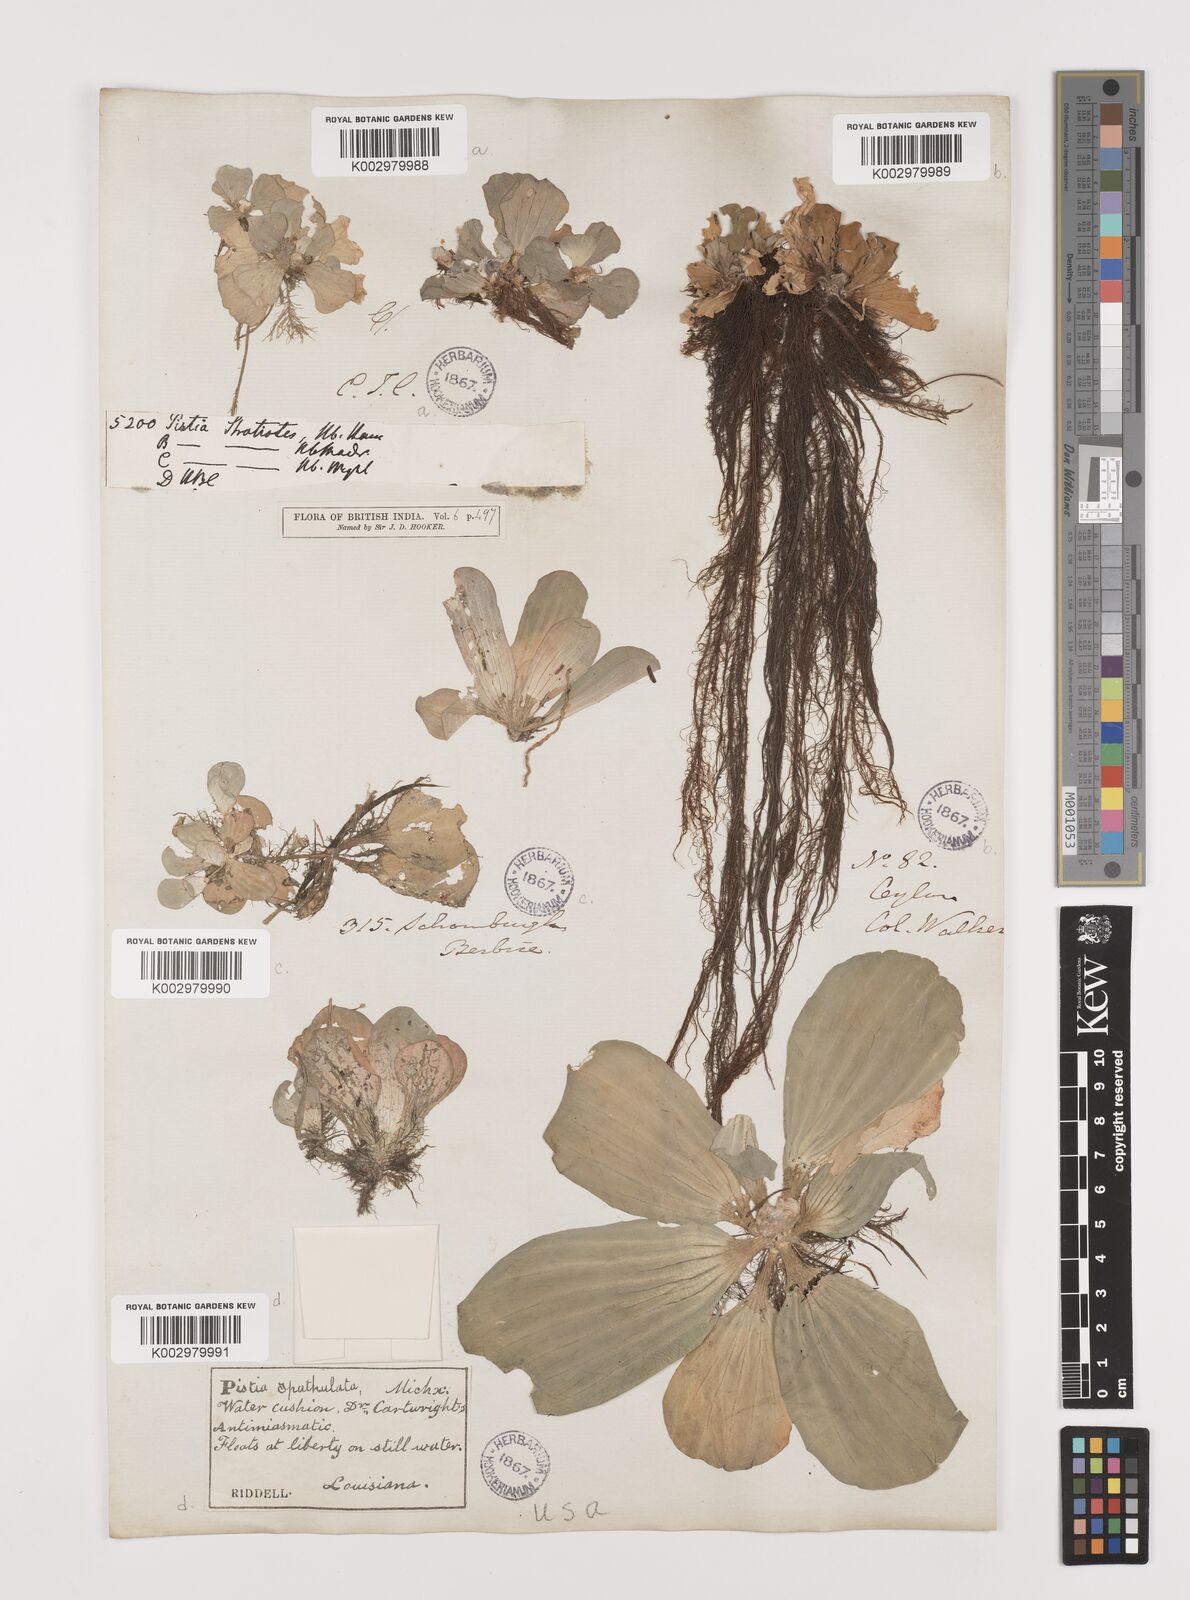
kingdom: Plantae
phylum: Tracheophyta
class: Liliopsida
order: Alismatales
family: Araceae
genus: Pistia
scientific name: Pistia stratiotes
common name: Water lettuce
